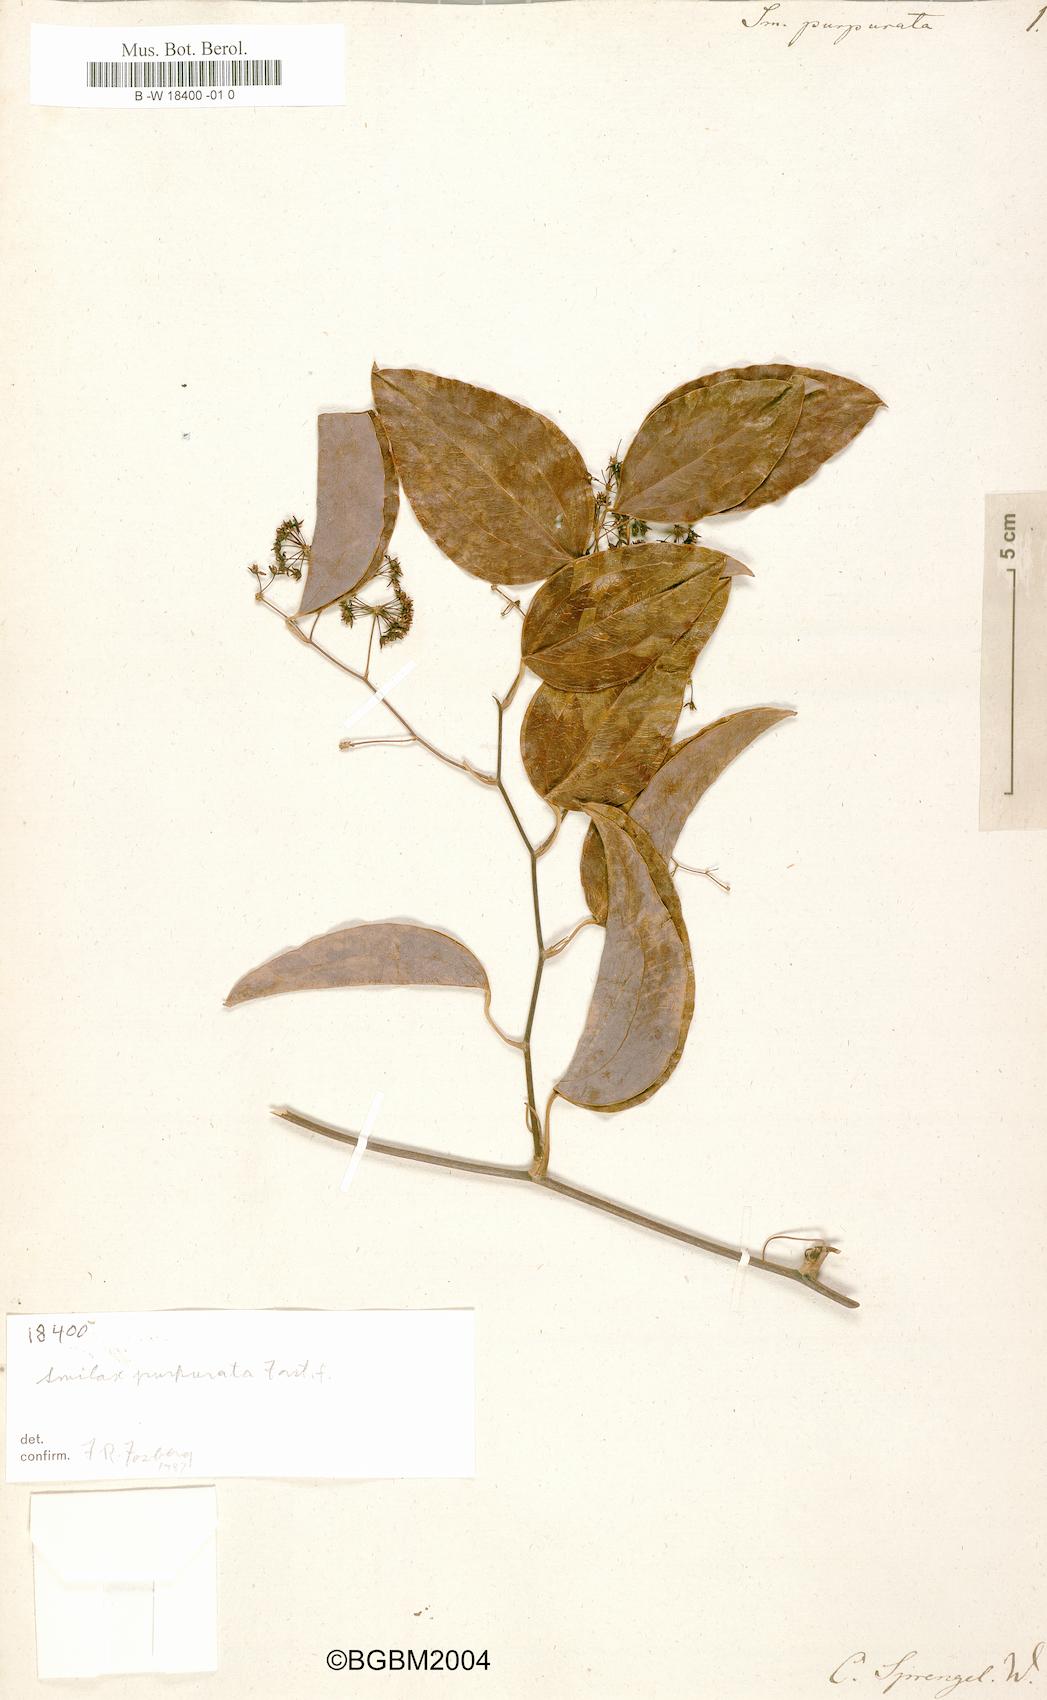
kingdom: Plantae
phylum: Tracheophyta
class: Liliopsida
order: Liliales
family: Smilacaceae
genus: Smilax
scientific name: Smilax purpurata
